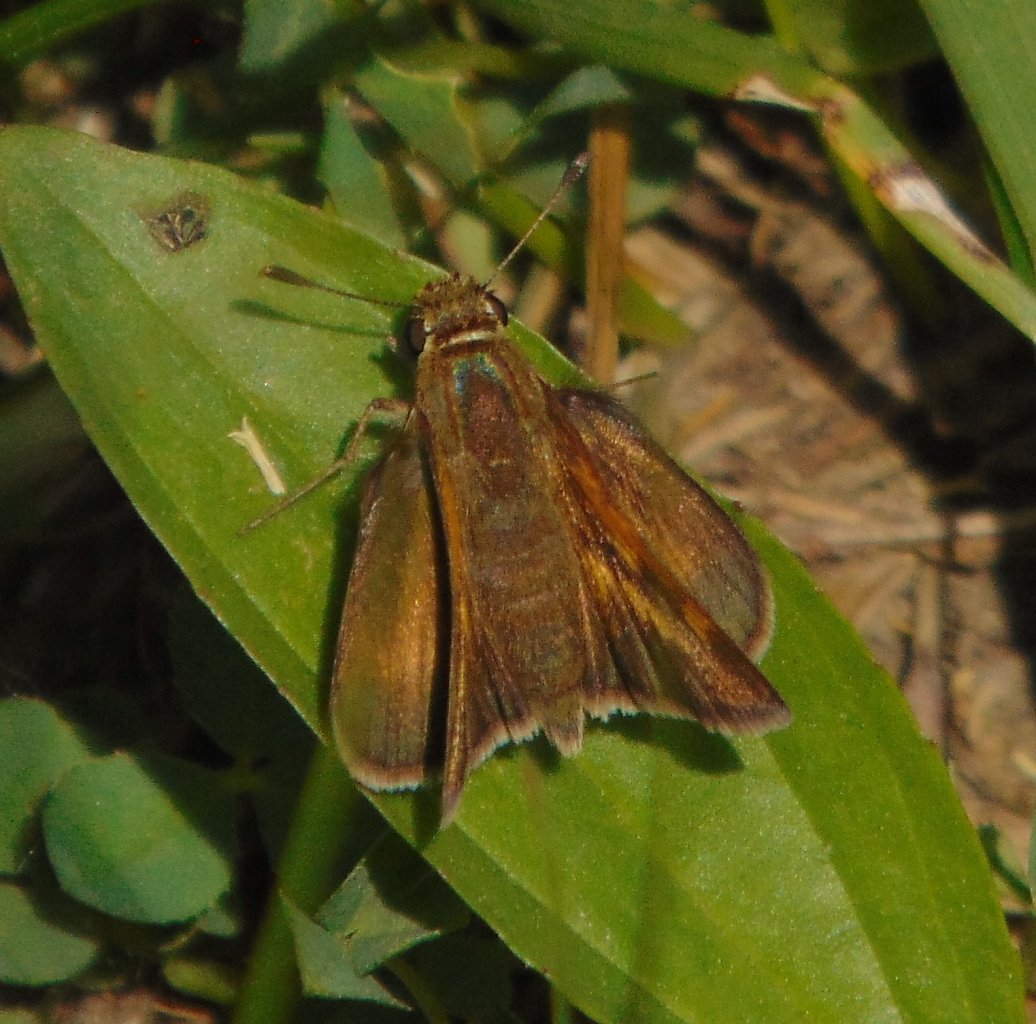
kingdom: Animalia
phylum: Arthropoda
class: Insecta
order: Lepidoptera
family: Hesperiidae
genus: Polites
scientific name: Polites themistocles
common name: Tawny-edged Skipper
